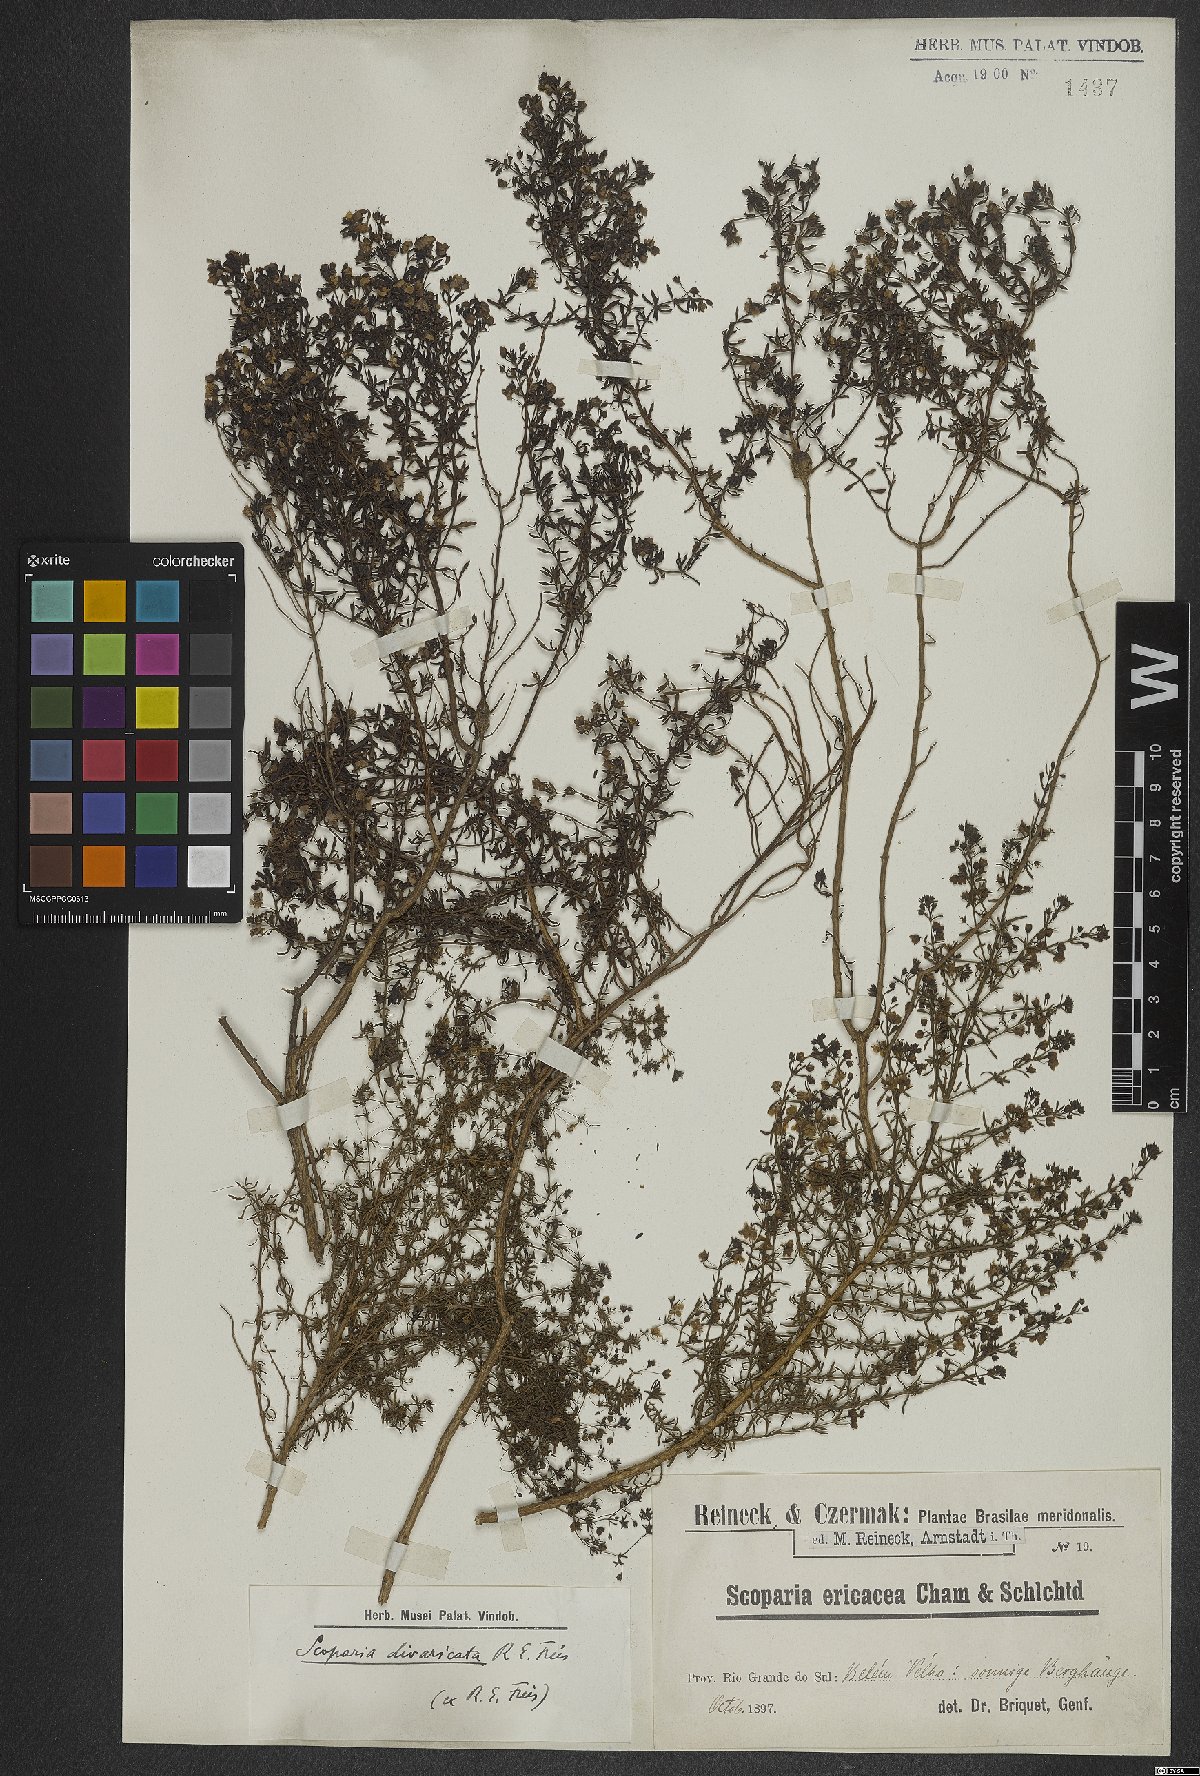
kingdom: Plantae
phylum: Tracheophyta
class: Magnoliopsida
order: Lamiales
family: Plantaginaceae
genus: Scoparia
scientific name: Scoparia ericacea
